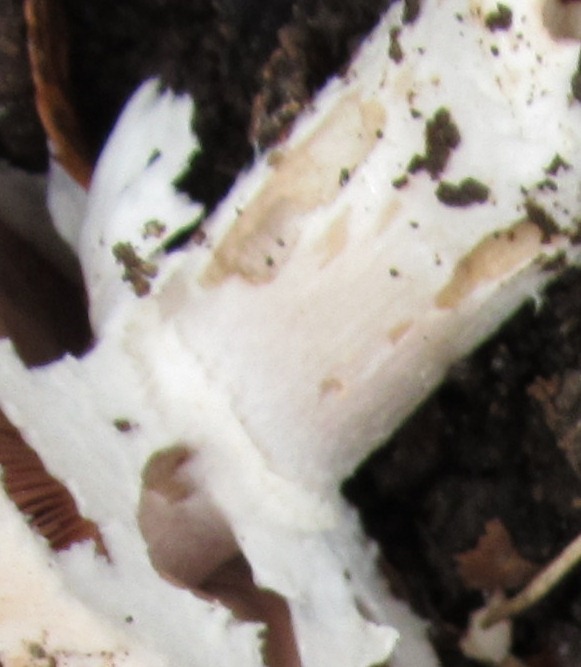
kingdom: Fungi
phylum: Basidiomycota
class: Agaricomycetes
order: Agaricales
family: Agaricaceae
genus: Agaricus
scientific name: Agaricus subperonatus
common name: knippe-champignon
